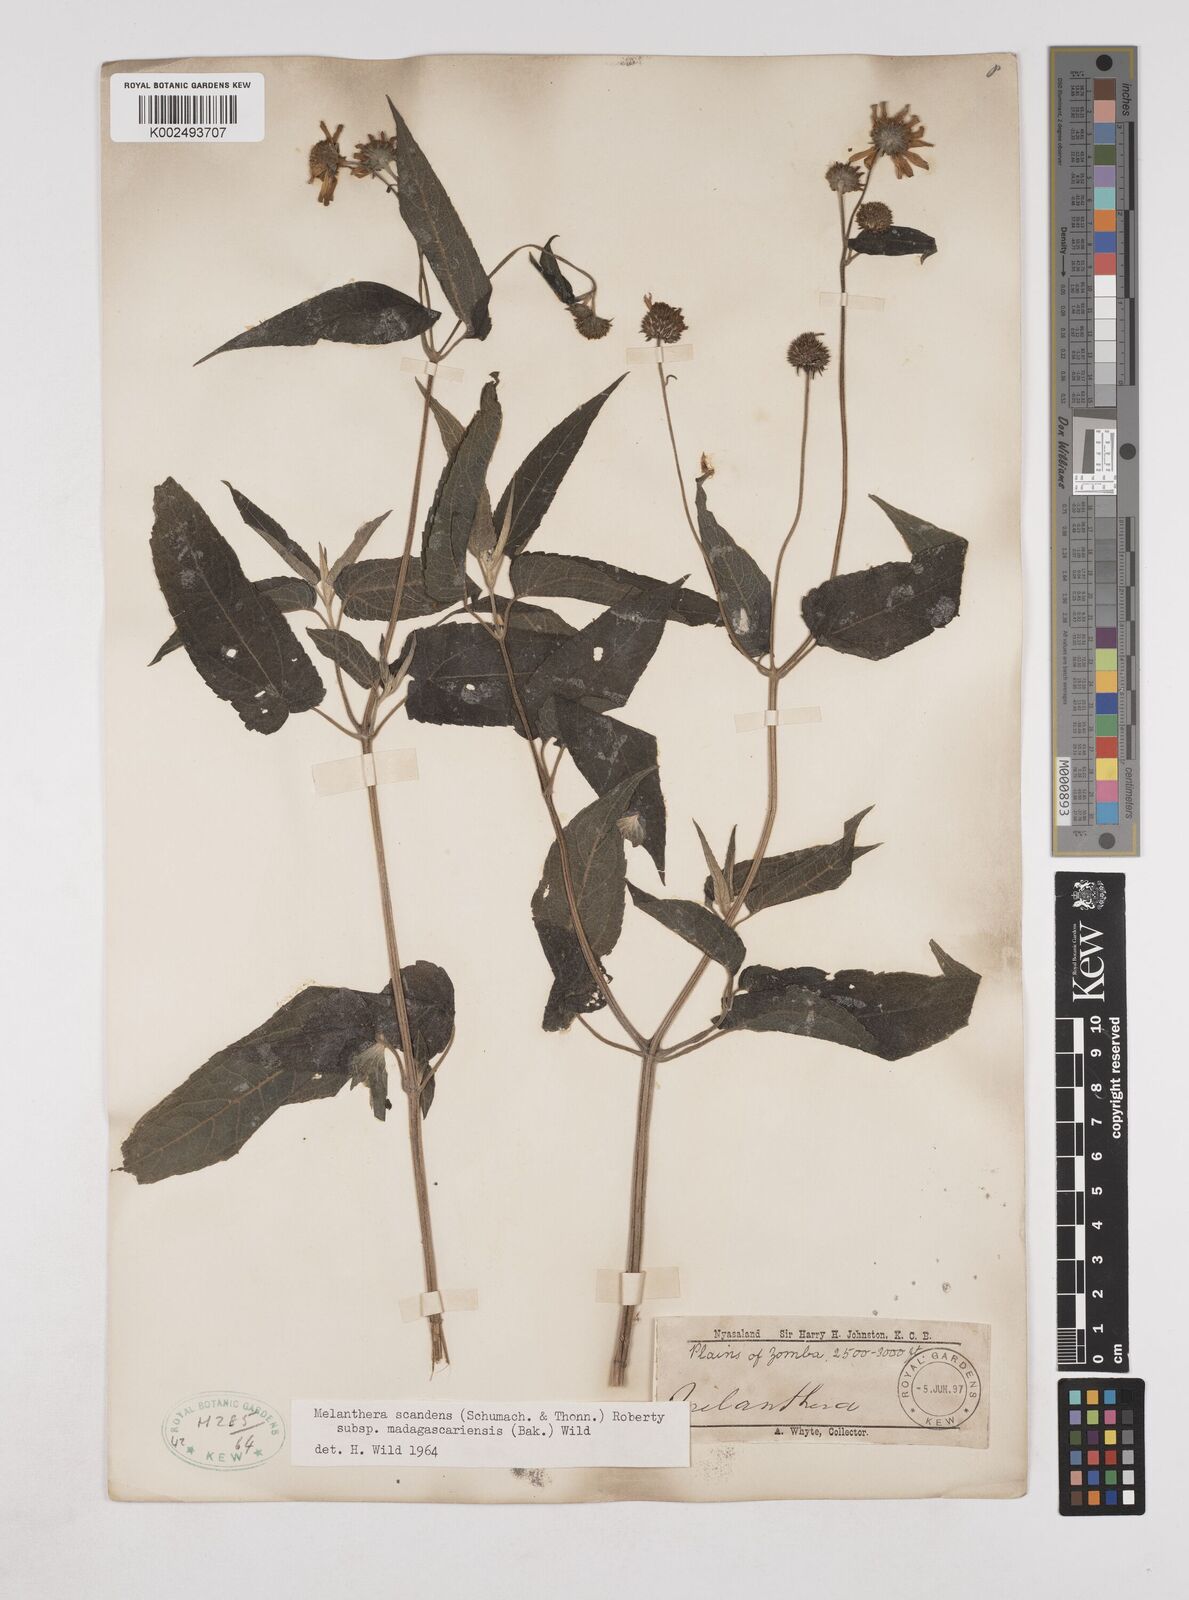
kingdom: Plantae
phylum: Tracheophyta
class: Magnoliopsida
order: Asterales
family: Asteraceae
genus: Lipotriche
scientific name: Lipotriche scandens
